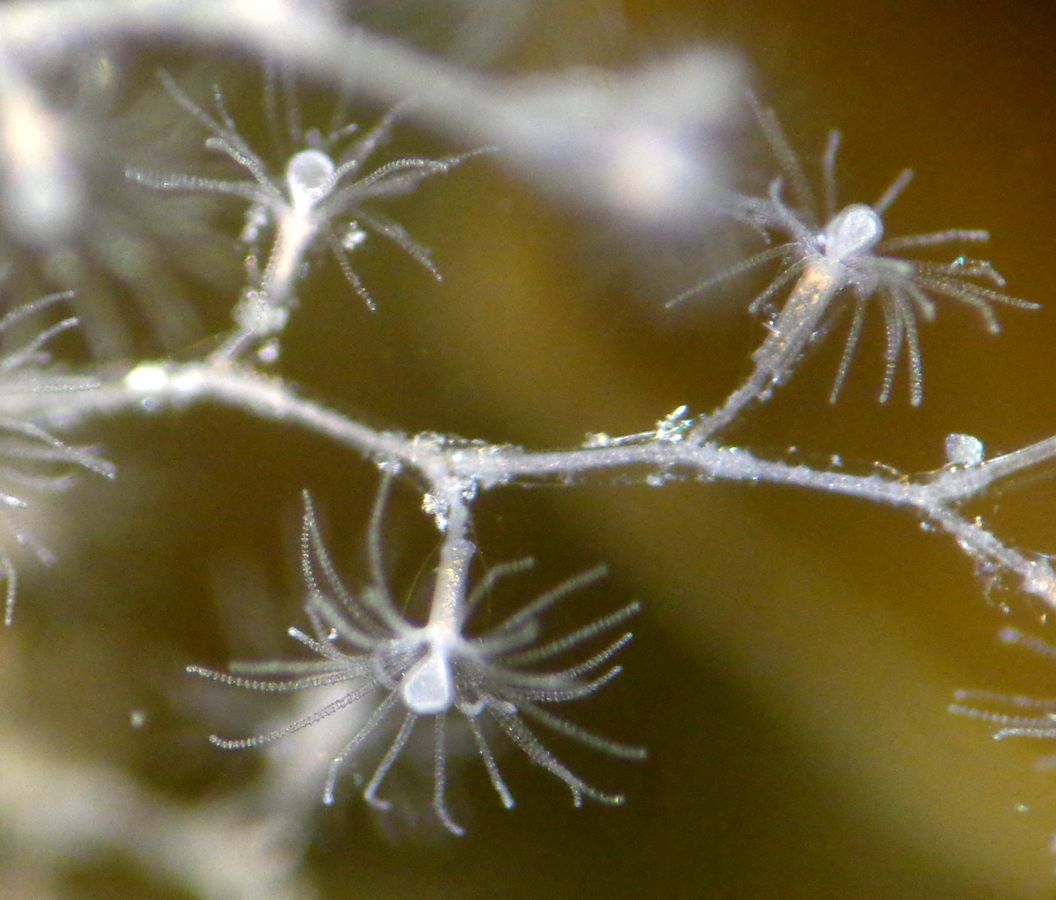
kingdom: Animalia
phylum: Cnidaria
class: Hydrozoa
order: Leptothecata
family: Campanulariidae
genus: Obelia
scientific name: Obelia geniculata
